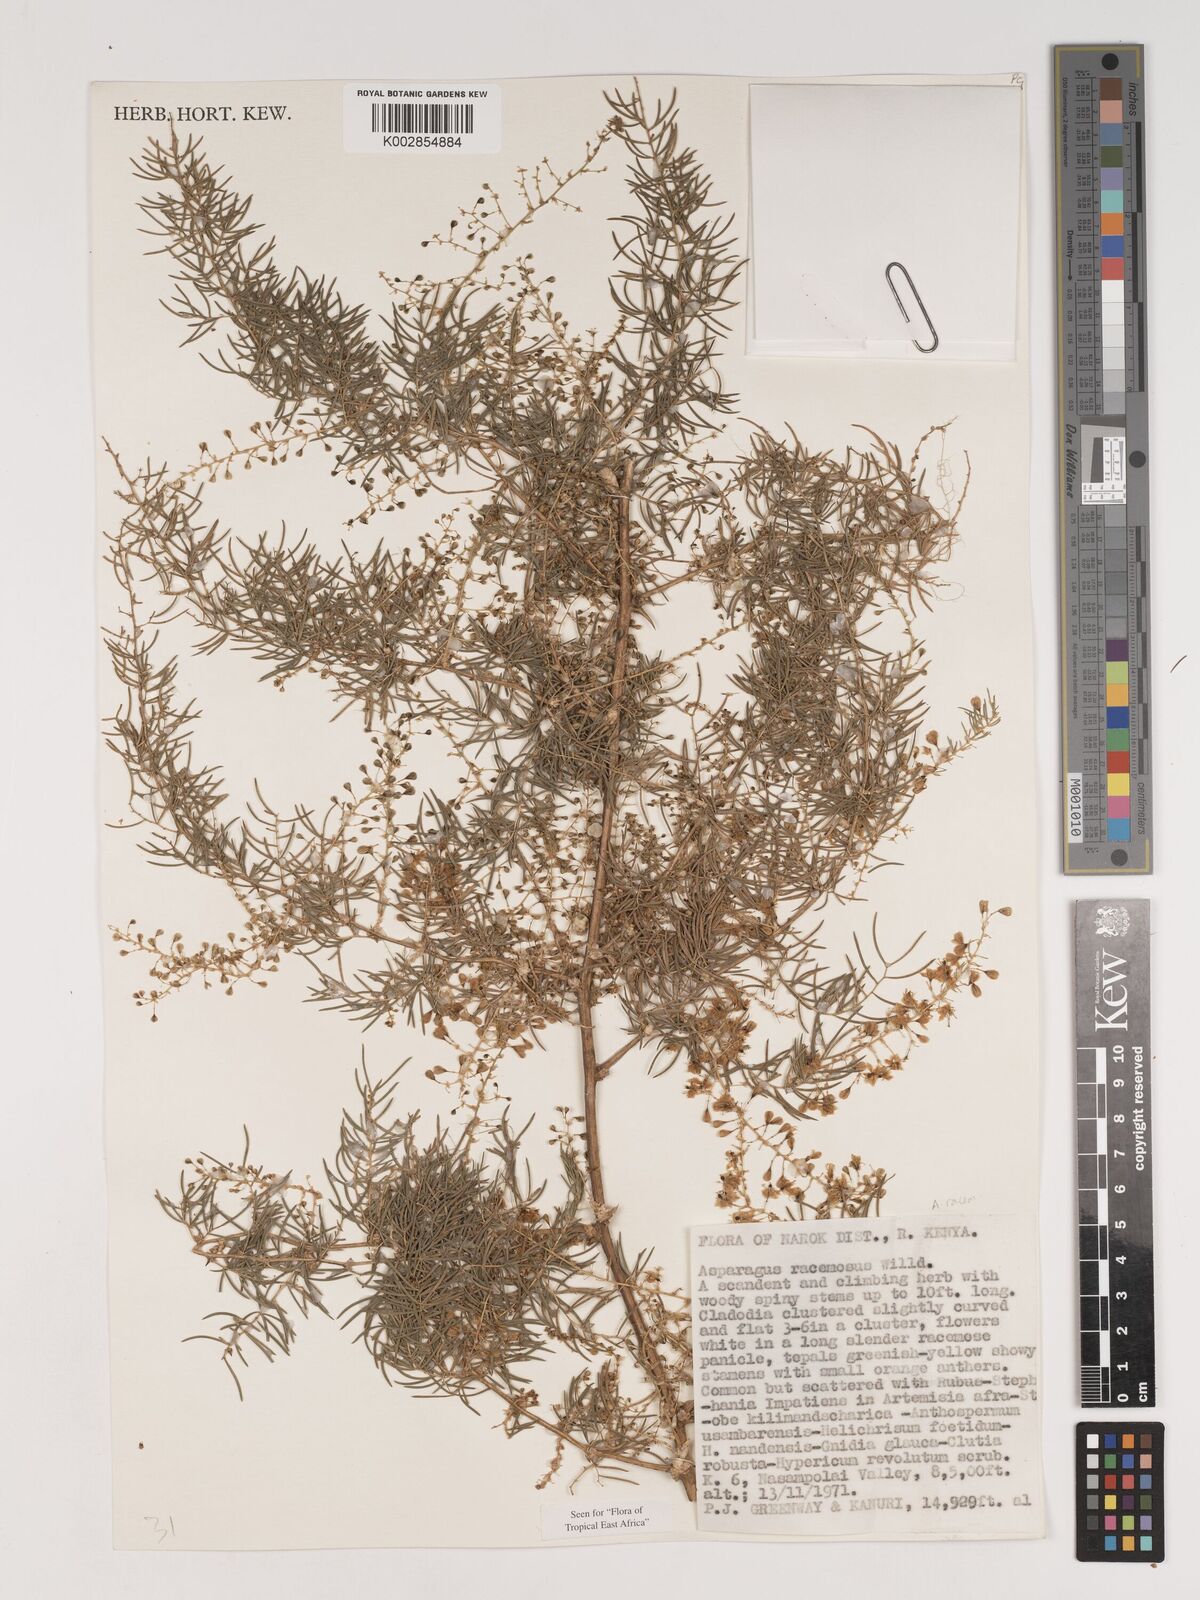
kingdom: Plantae
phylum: Tracheophyta
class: Liliopsida
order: Asparagales
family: Asparagaceae
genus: Asparagus
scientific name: Asparagus racemosus
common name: Asparagus-fern
